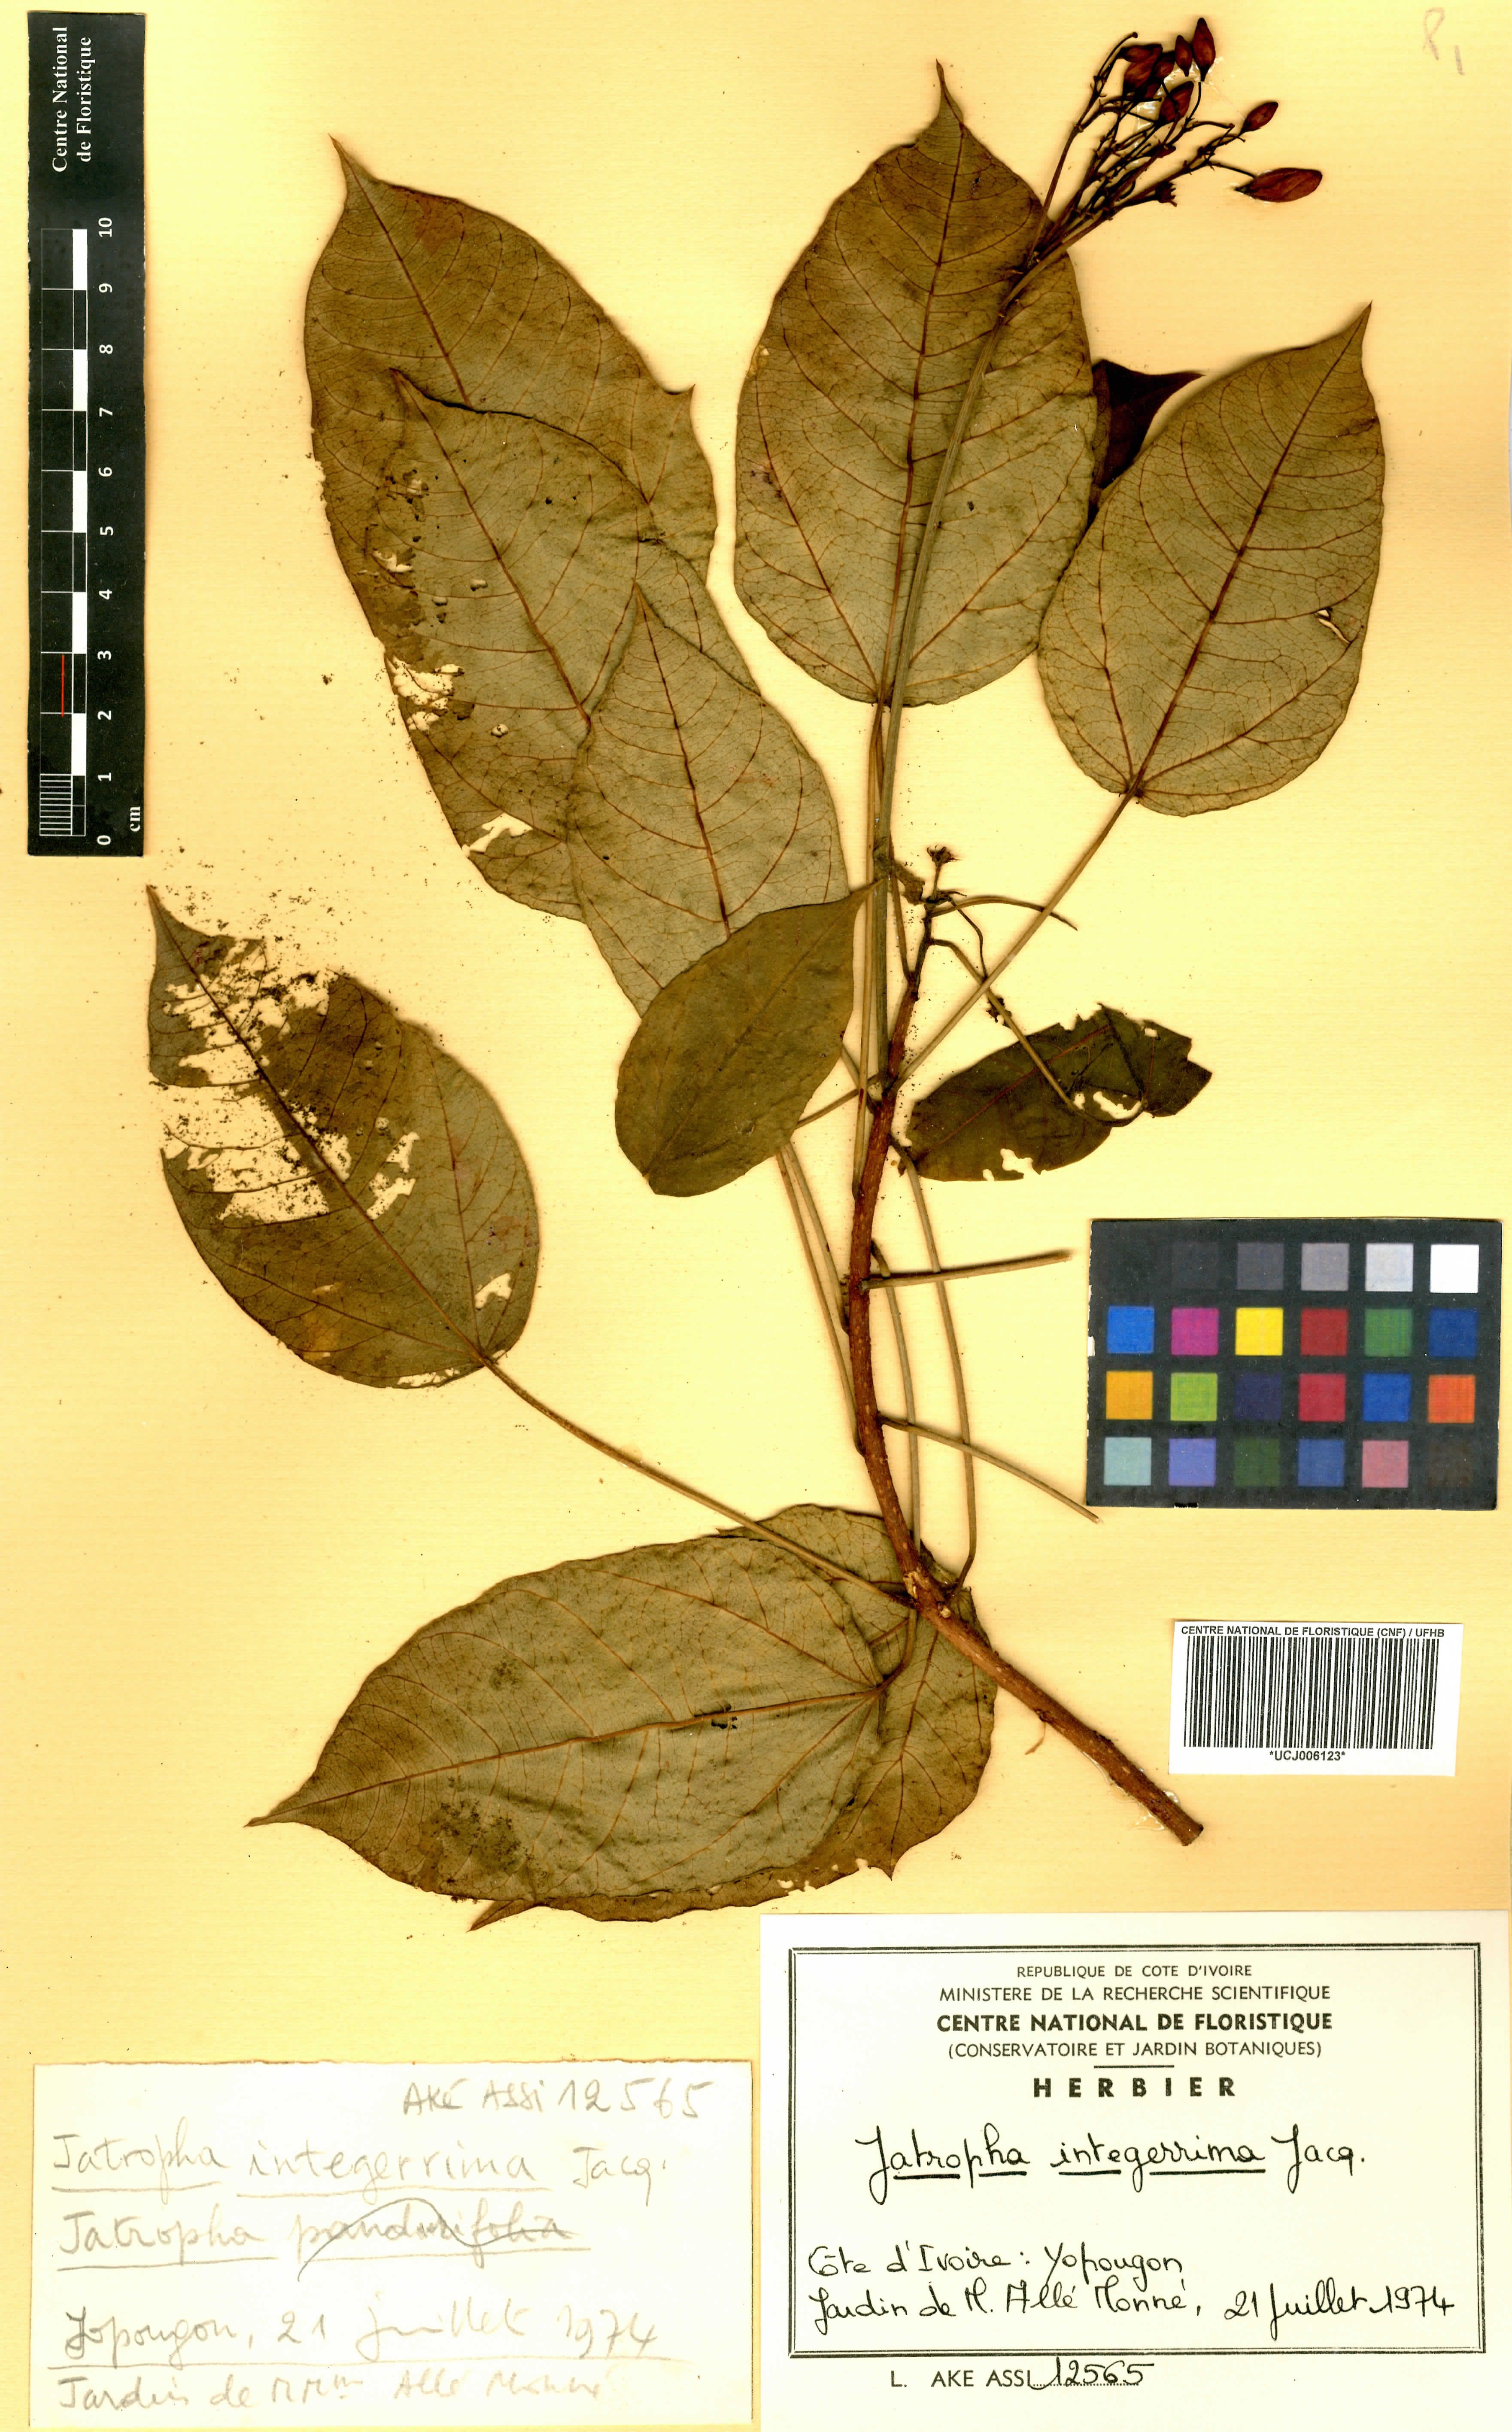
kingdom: Plantae
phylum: Tracheophyta
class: Magnoliopsida
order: Malpighiales
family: Euphorbiaceae
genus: Jatropha
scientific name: Jatropha integerrima
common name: Peregrina
